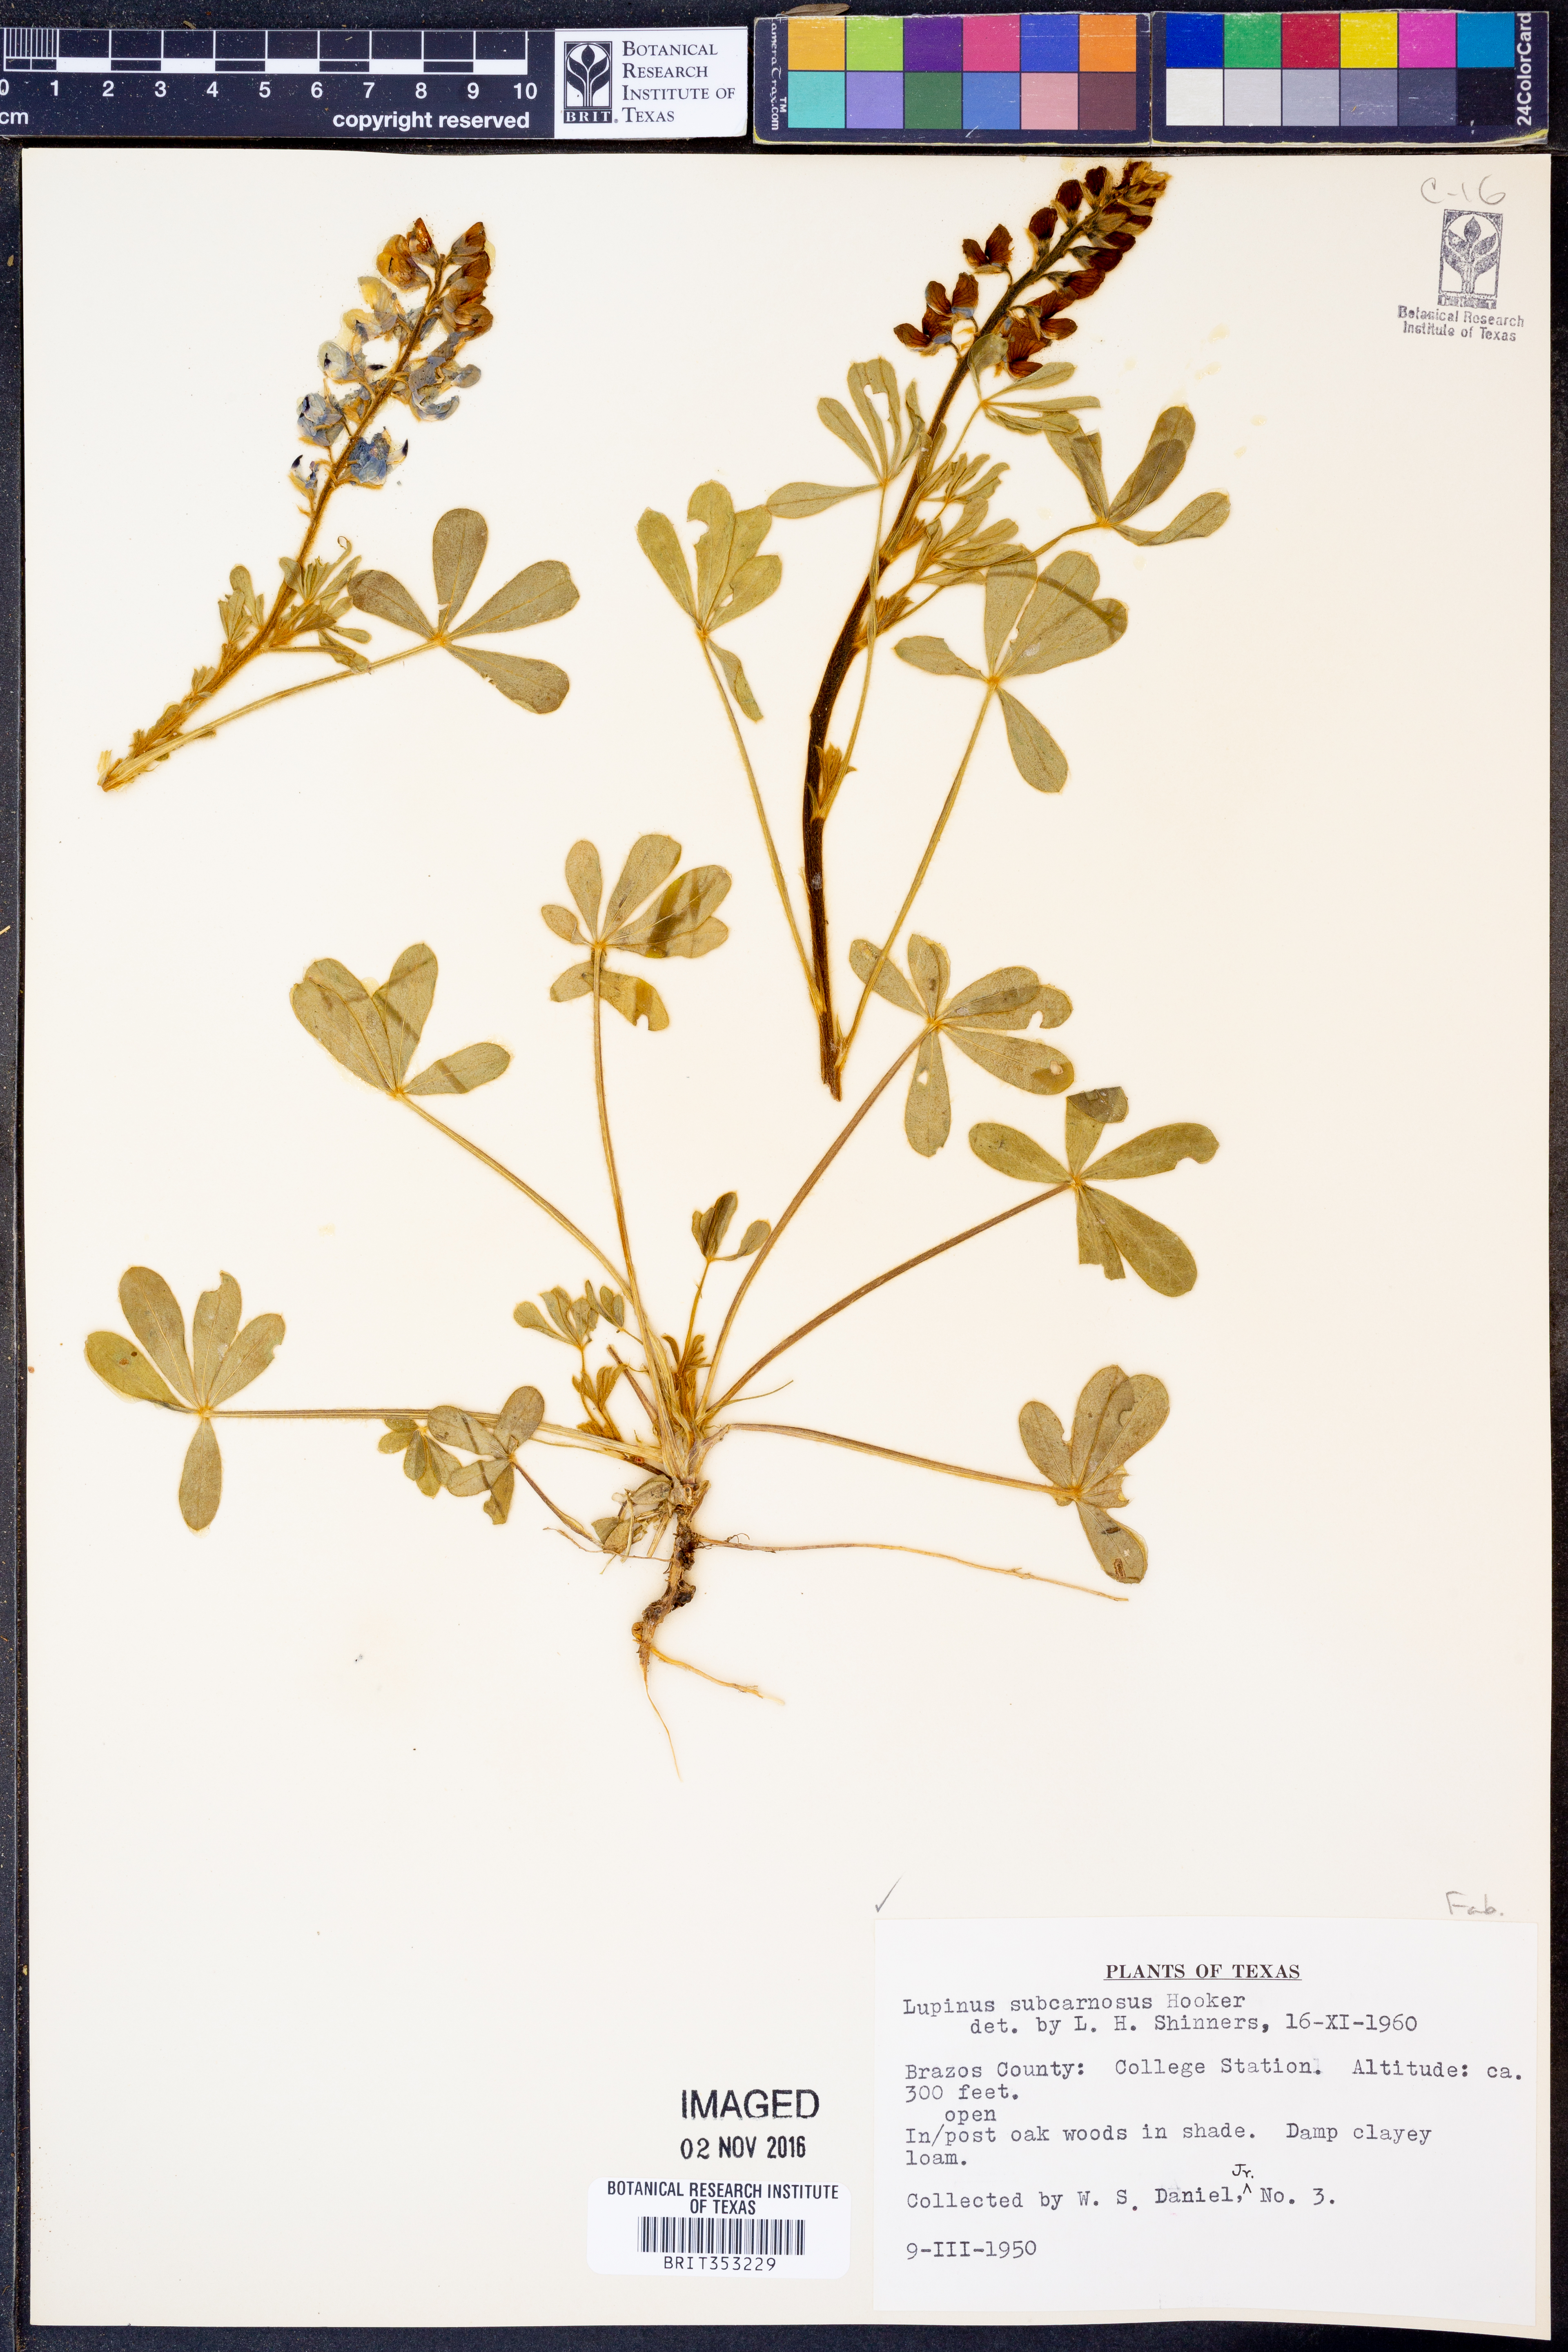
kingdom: Plantae
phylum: Tracheophyta
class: Magnoliopsida
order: Fabales
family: Fabaceae
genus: Lupinus
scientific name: Lupinus subcarnosus
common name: Texas bluebonnet
